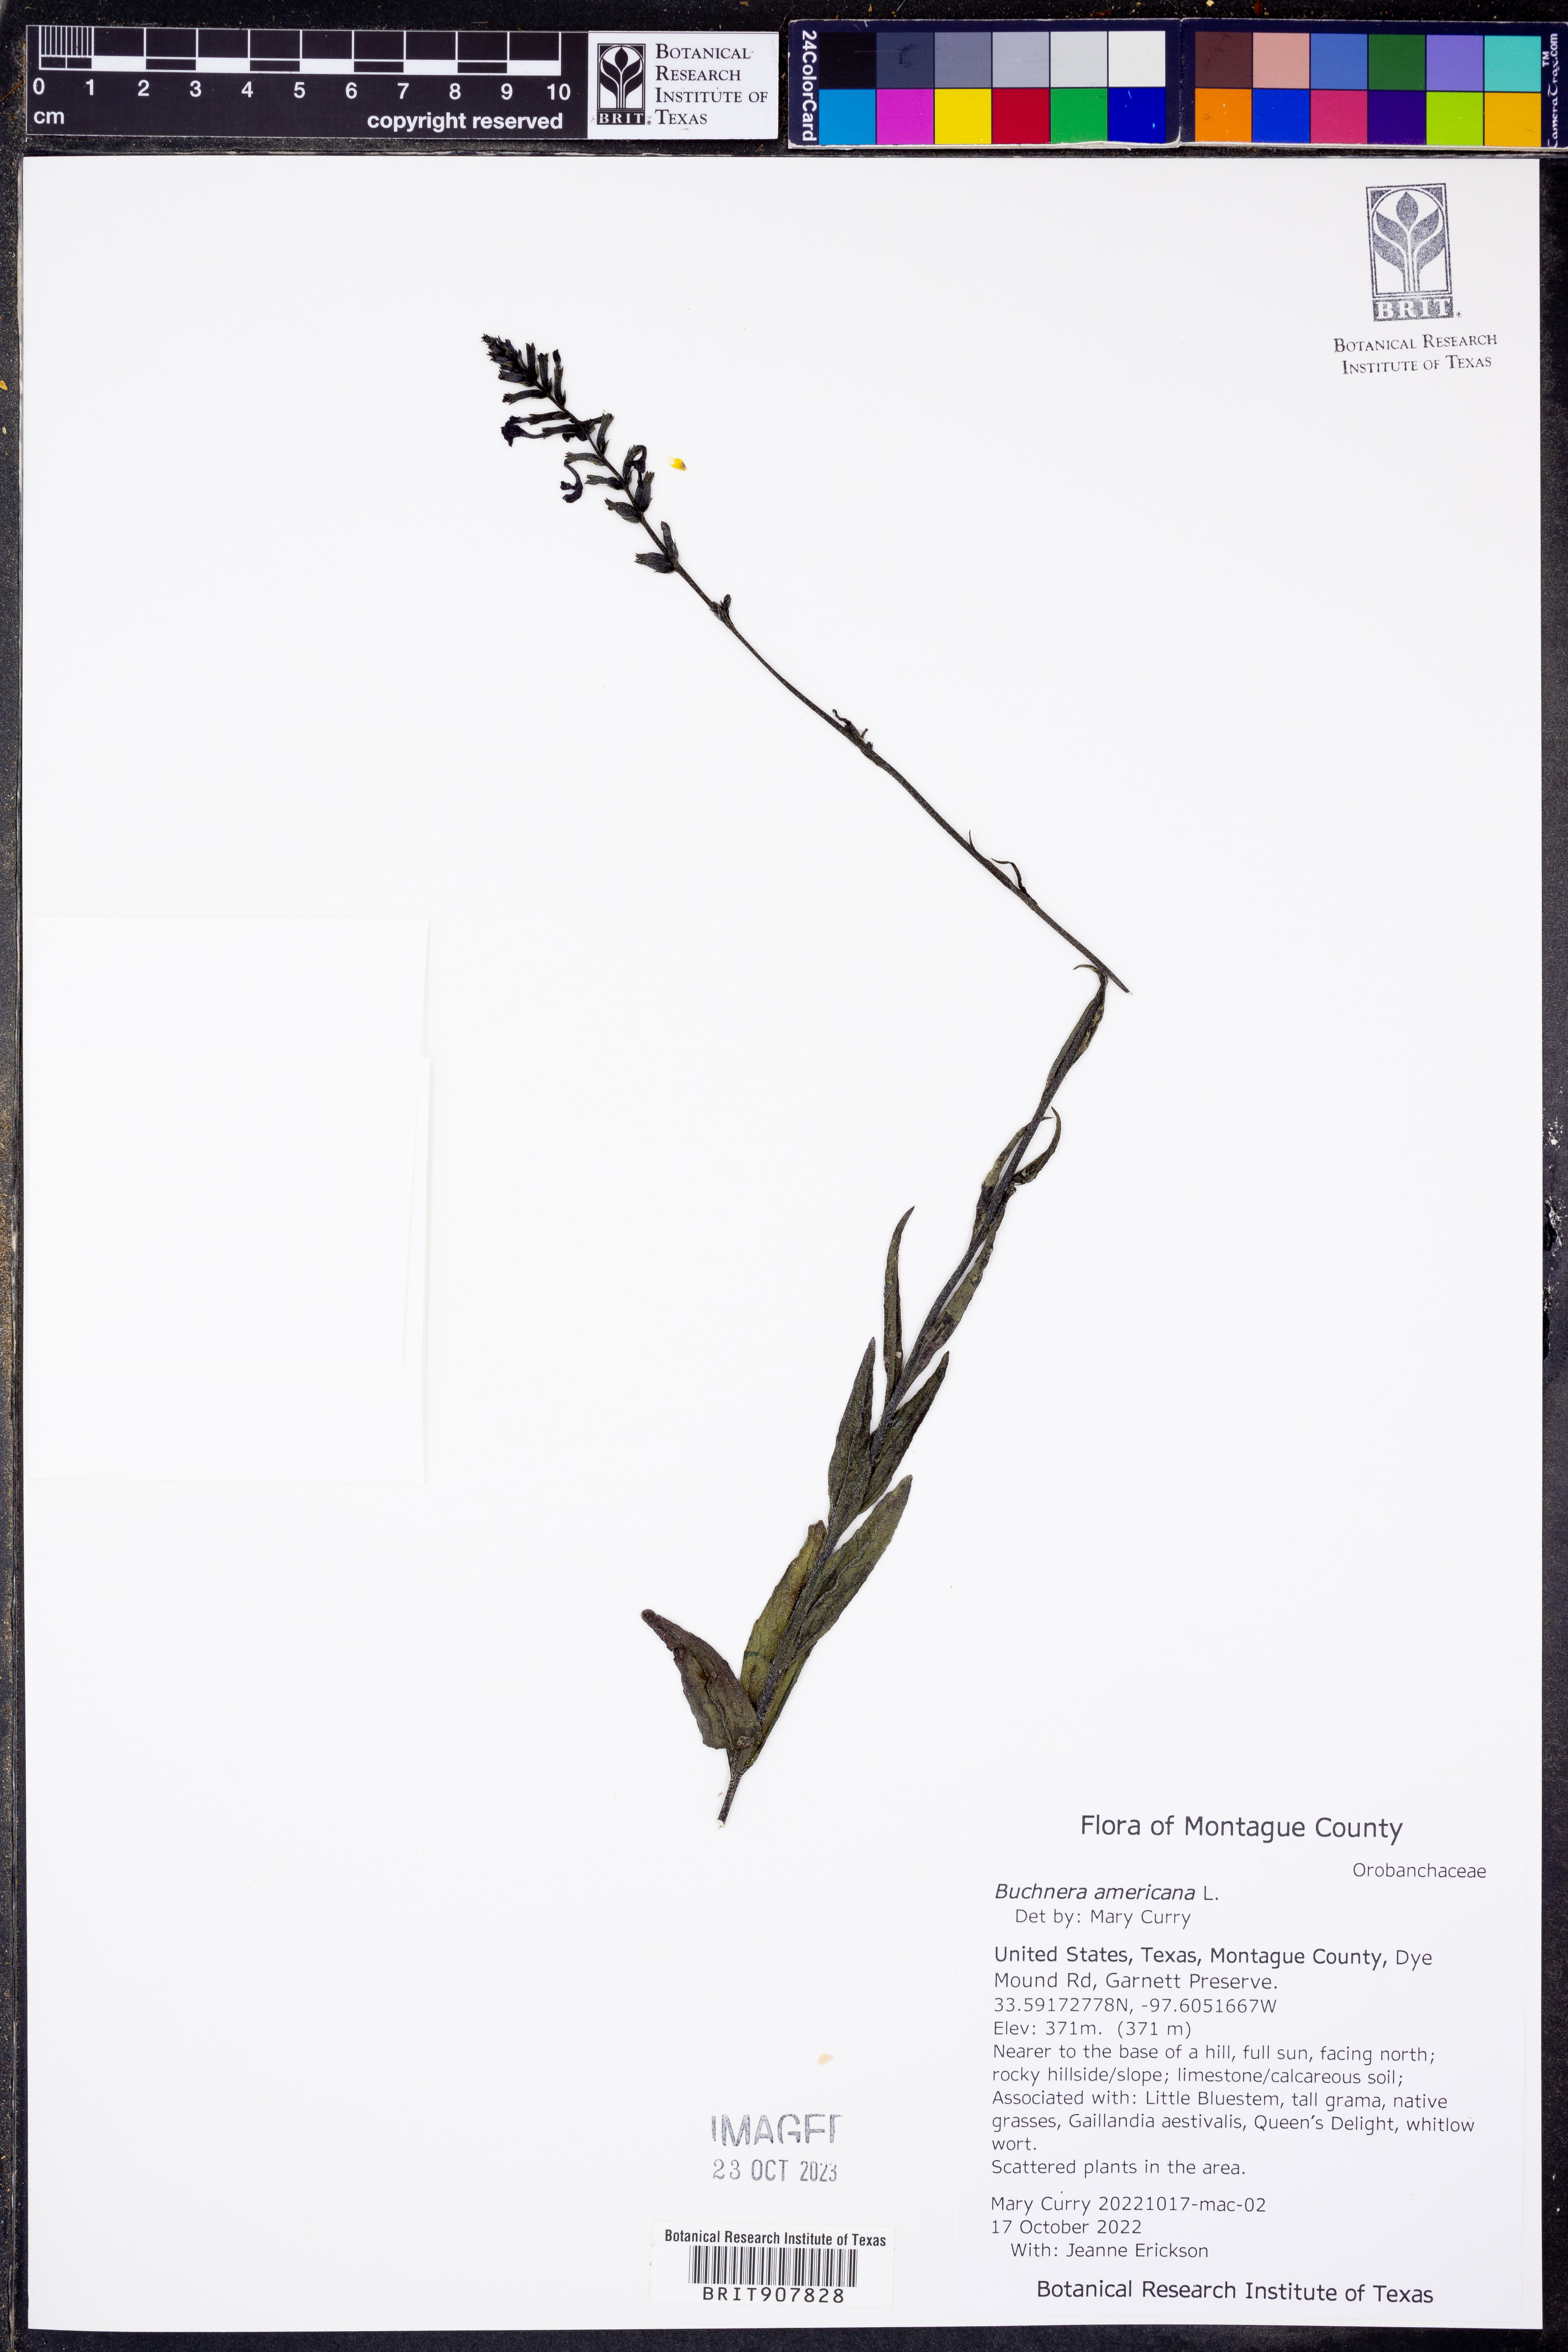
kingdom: Plantae
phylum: Tracheophyta
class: Magnoliopsida
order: Lamiales
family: Orobanchaceae
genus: Buchnera
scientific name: Buchnera americana
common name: American bluehearts
